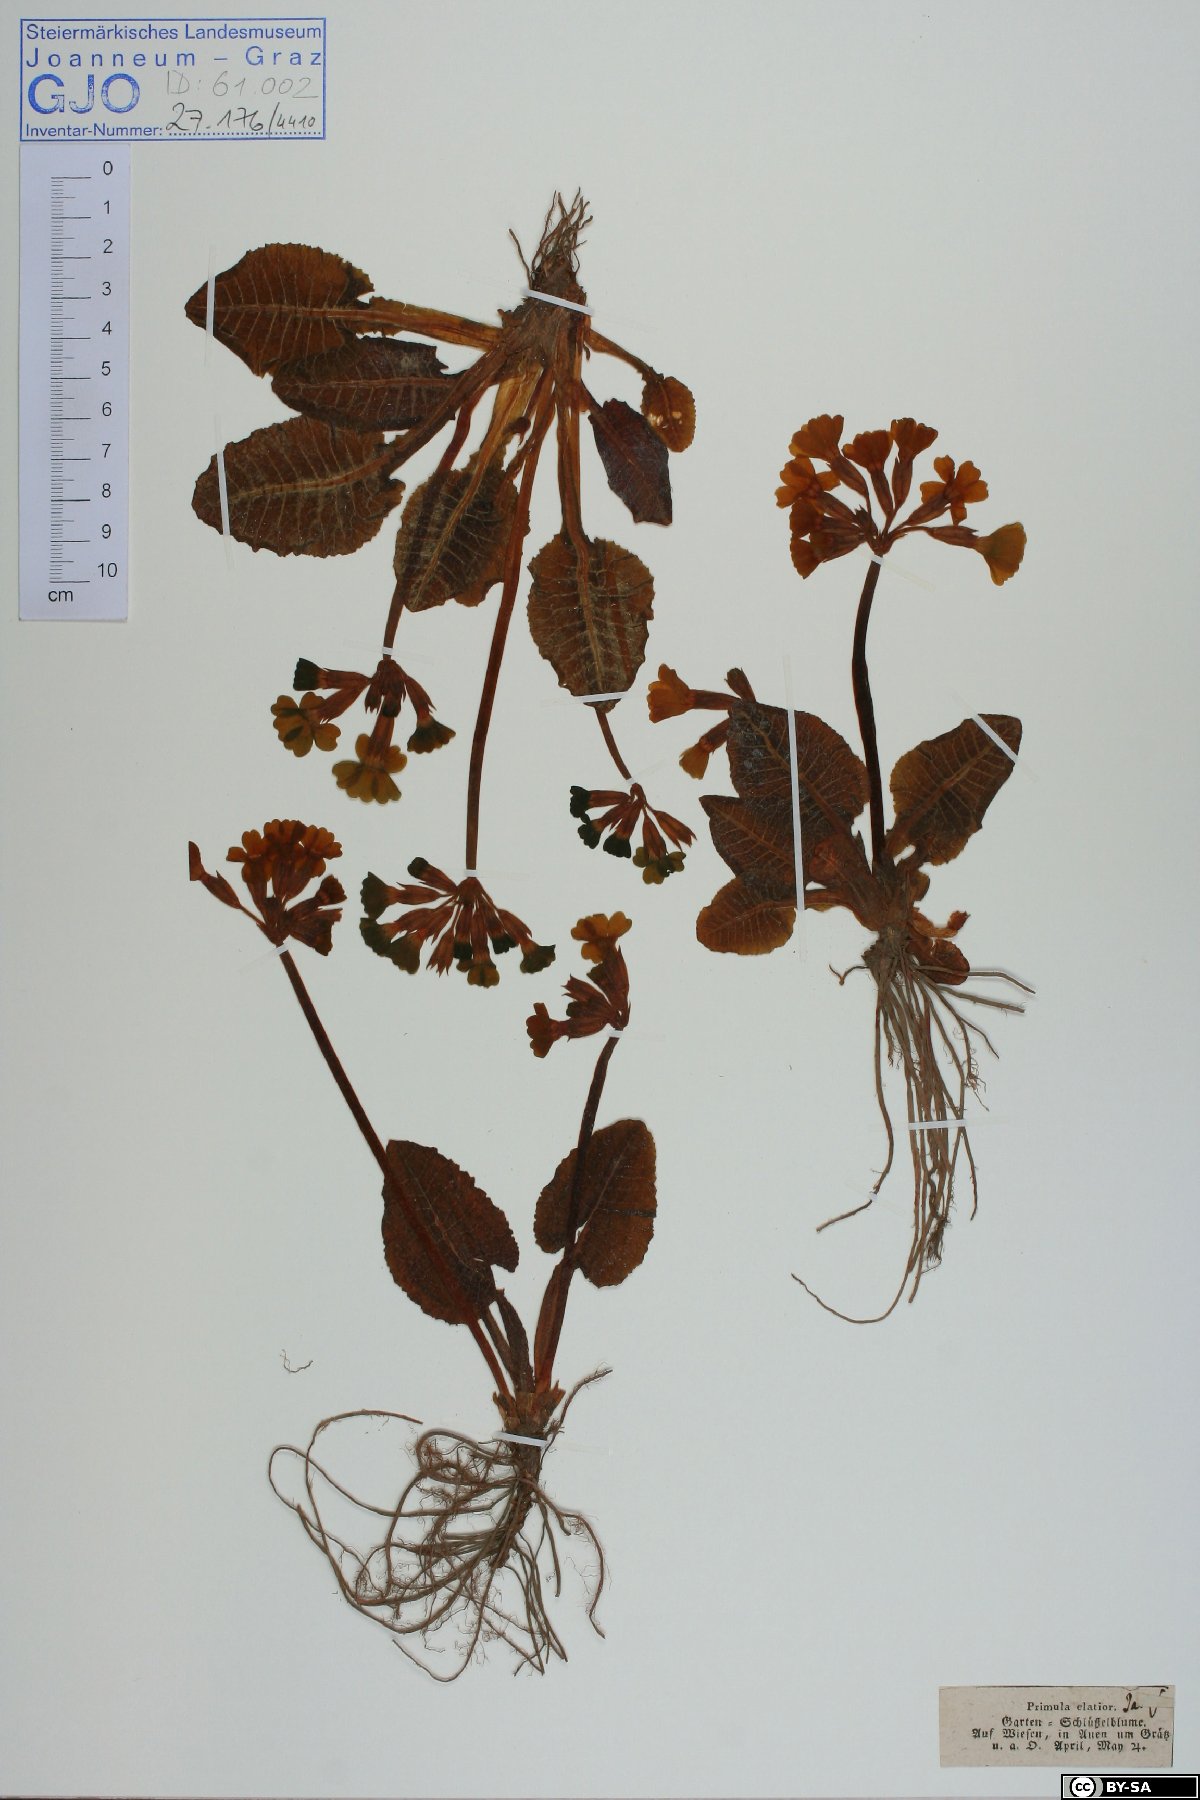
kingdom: Plantae
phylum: Tracheophyta
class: Magnoliopsida
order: Ericales
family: Primulaceae
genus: Primula
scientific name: Primula elatior
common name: Oxlip
